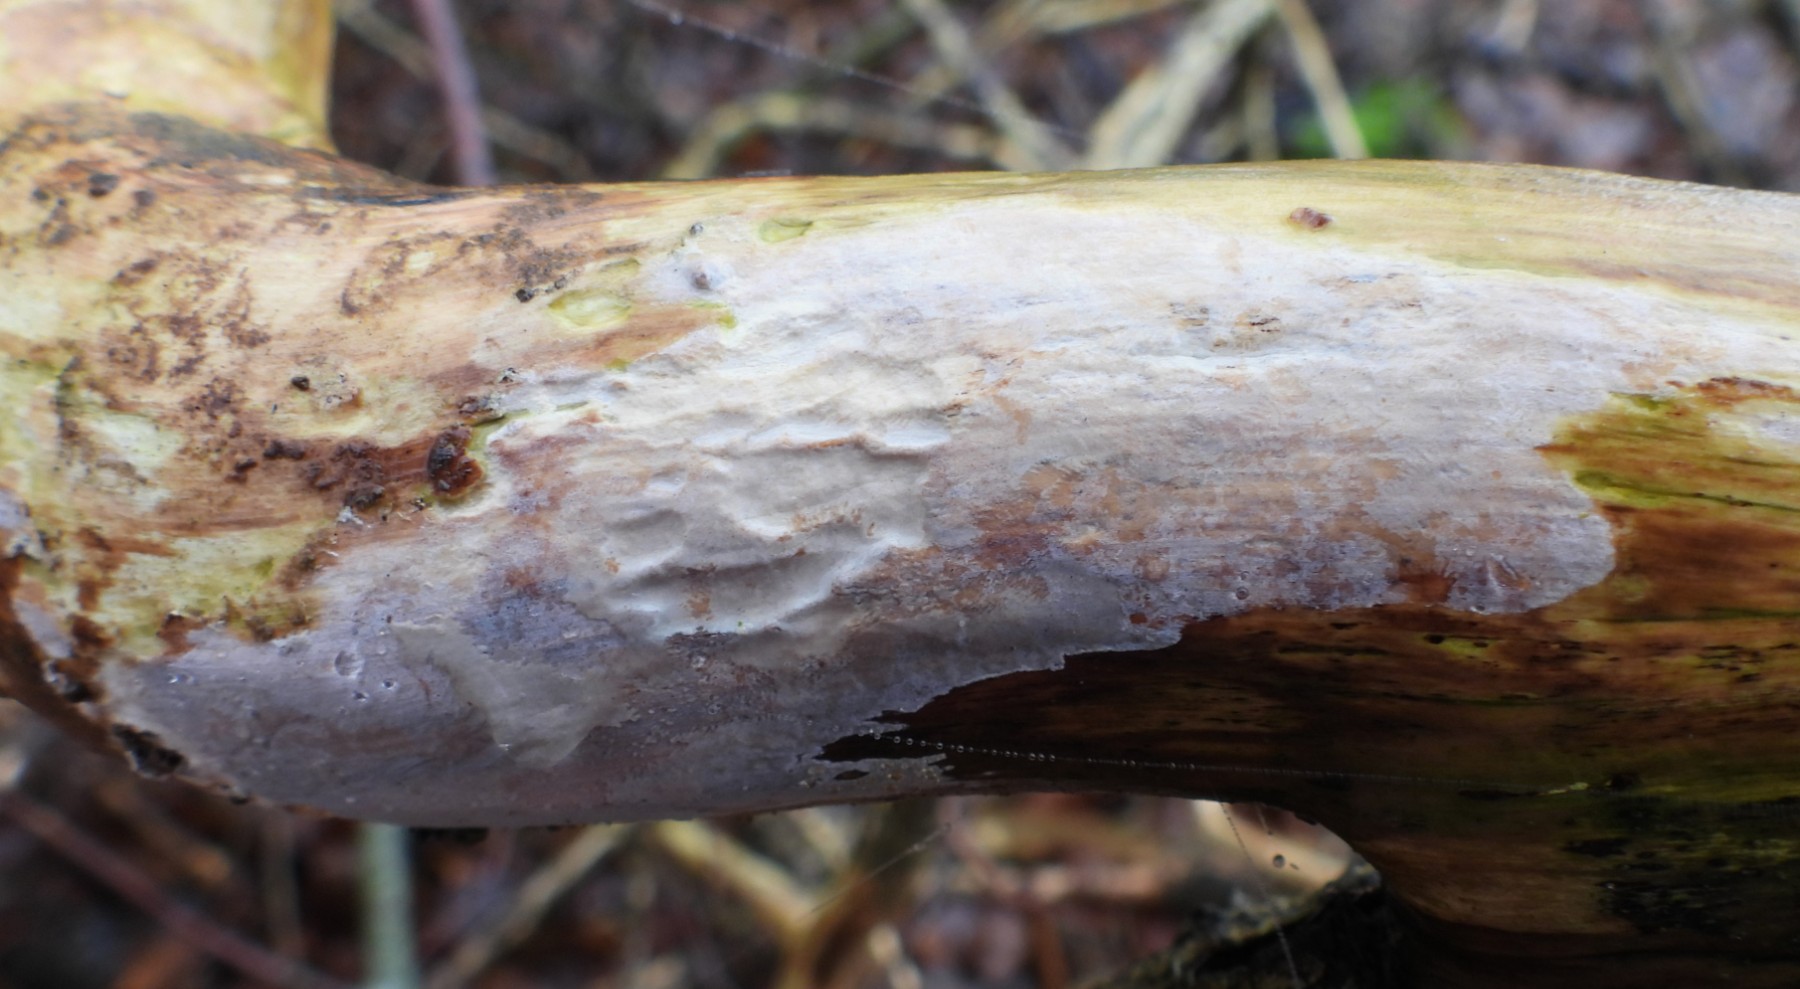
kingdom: Fungi
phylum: Basidiomycota
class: Agaricomycetes
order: Corticiales
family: Corticiaceae
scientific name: Corticiaceae
